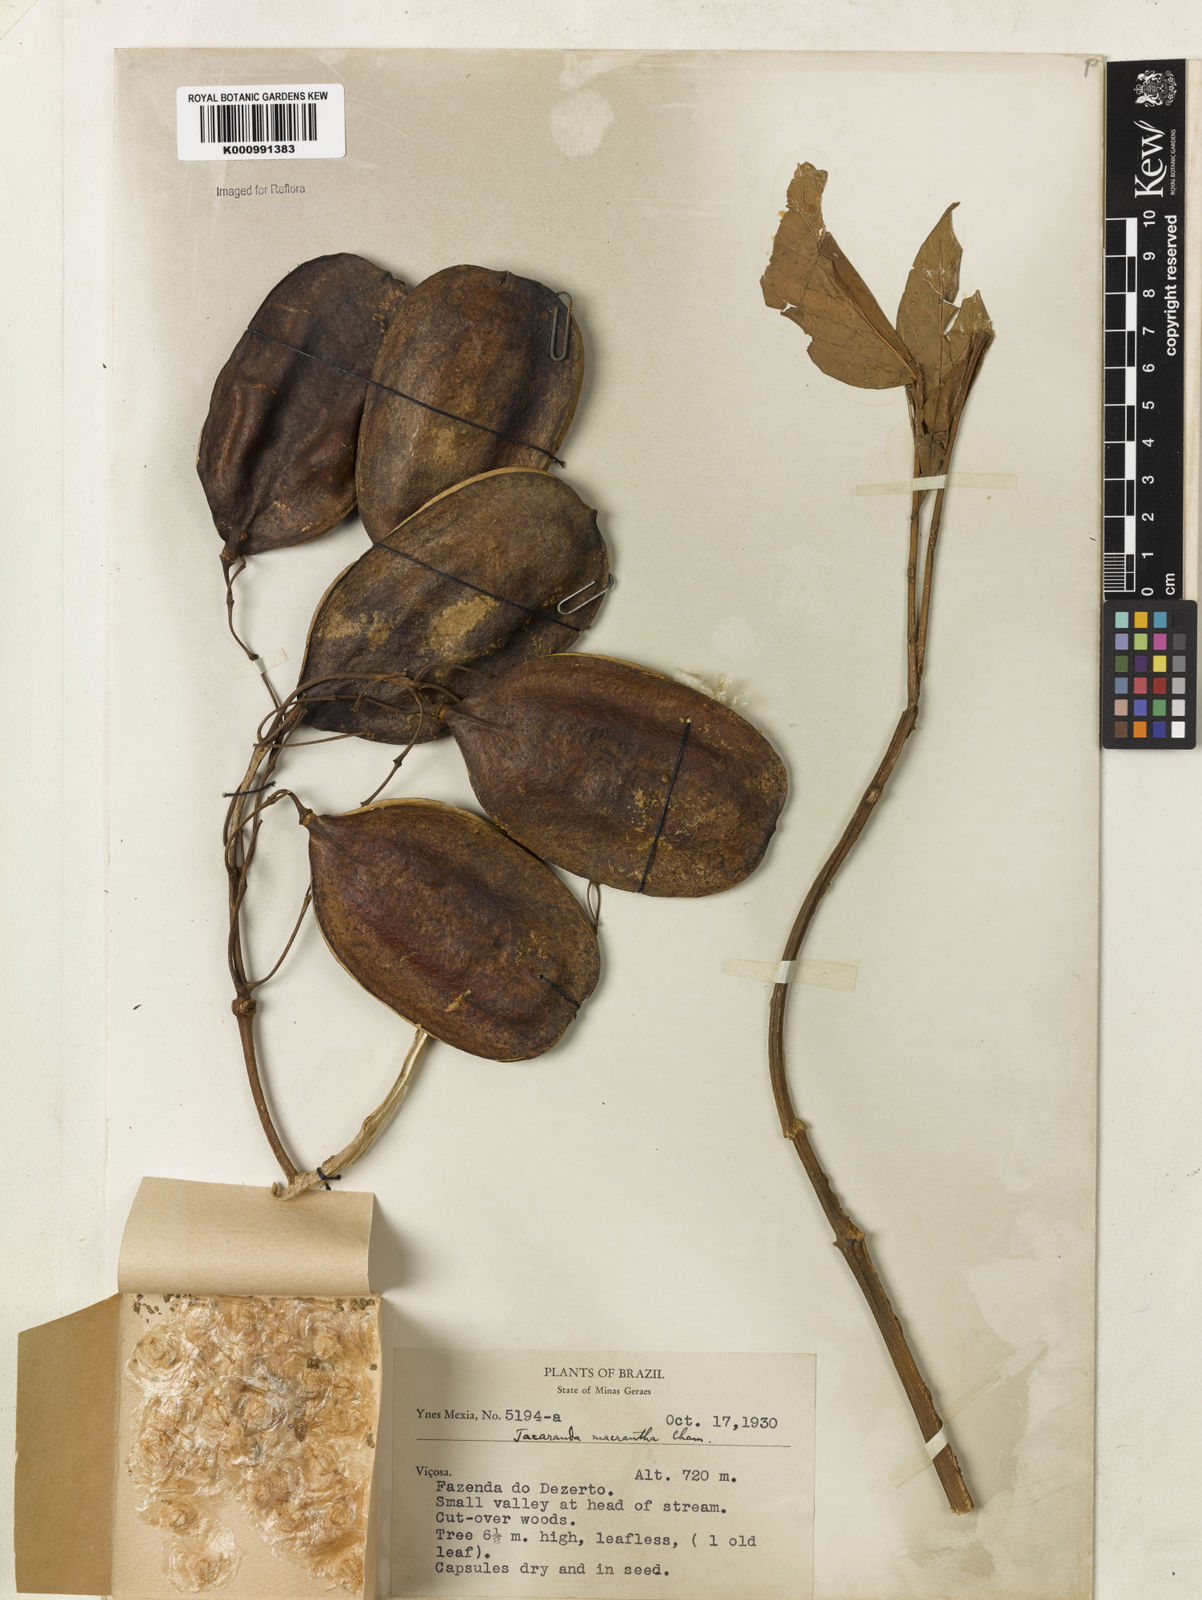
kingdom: Plantae
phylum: Tracheophyta
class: Magnoliopsida
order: Lamiales
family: Bignoniaceae
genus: Jacaranda
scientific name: Jacaranda micrantha
